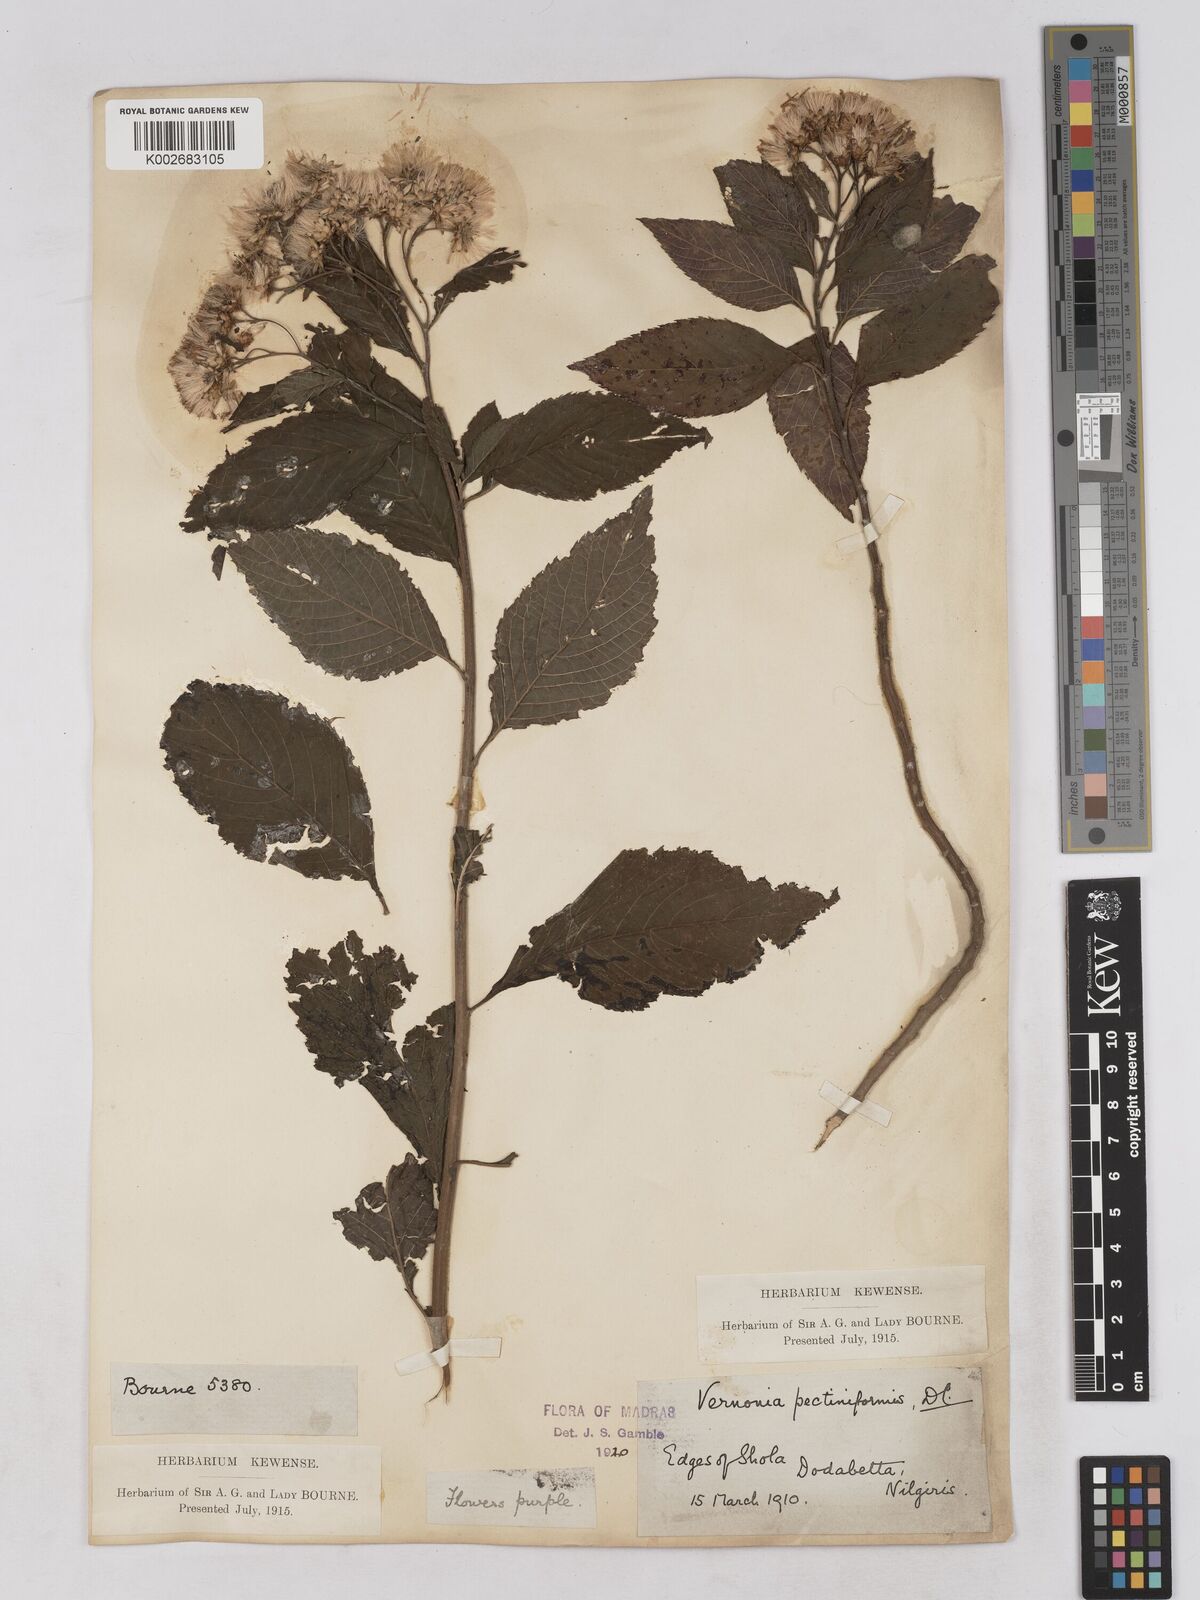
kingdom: Plantae
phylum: Tracheophyta
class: Magnoliopsida
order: Asterales
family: Asteraceae
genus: Gymnanthemum
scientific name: Gymnanthemum pectiniforme
